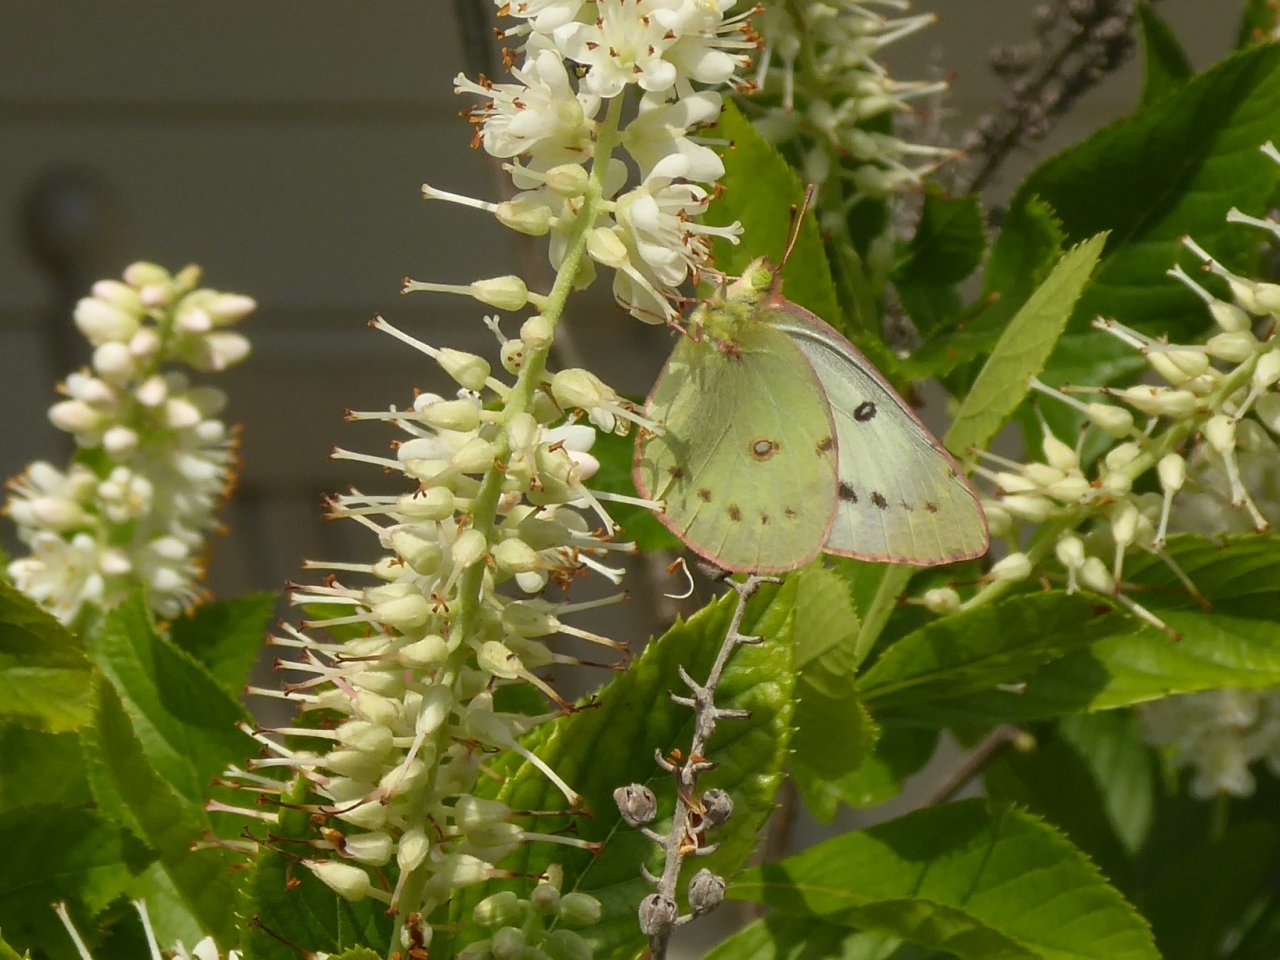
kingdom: Animalia
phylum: Arthropoda
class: Insecta
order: Lepidoptera
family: Pieridae
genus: Colias
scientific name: Colias eurytheme
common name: Orange Sulphur
